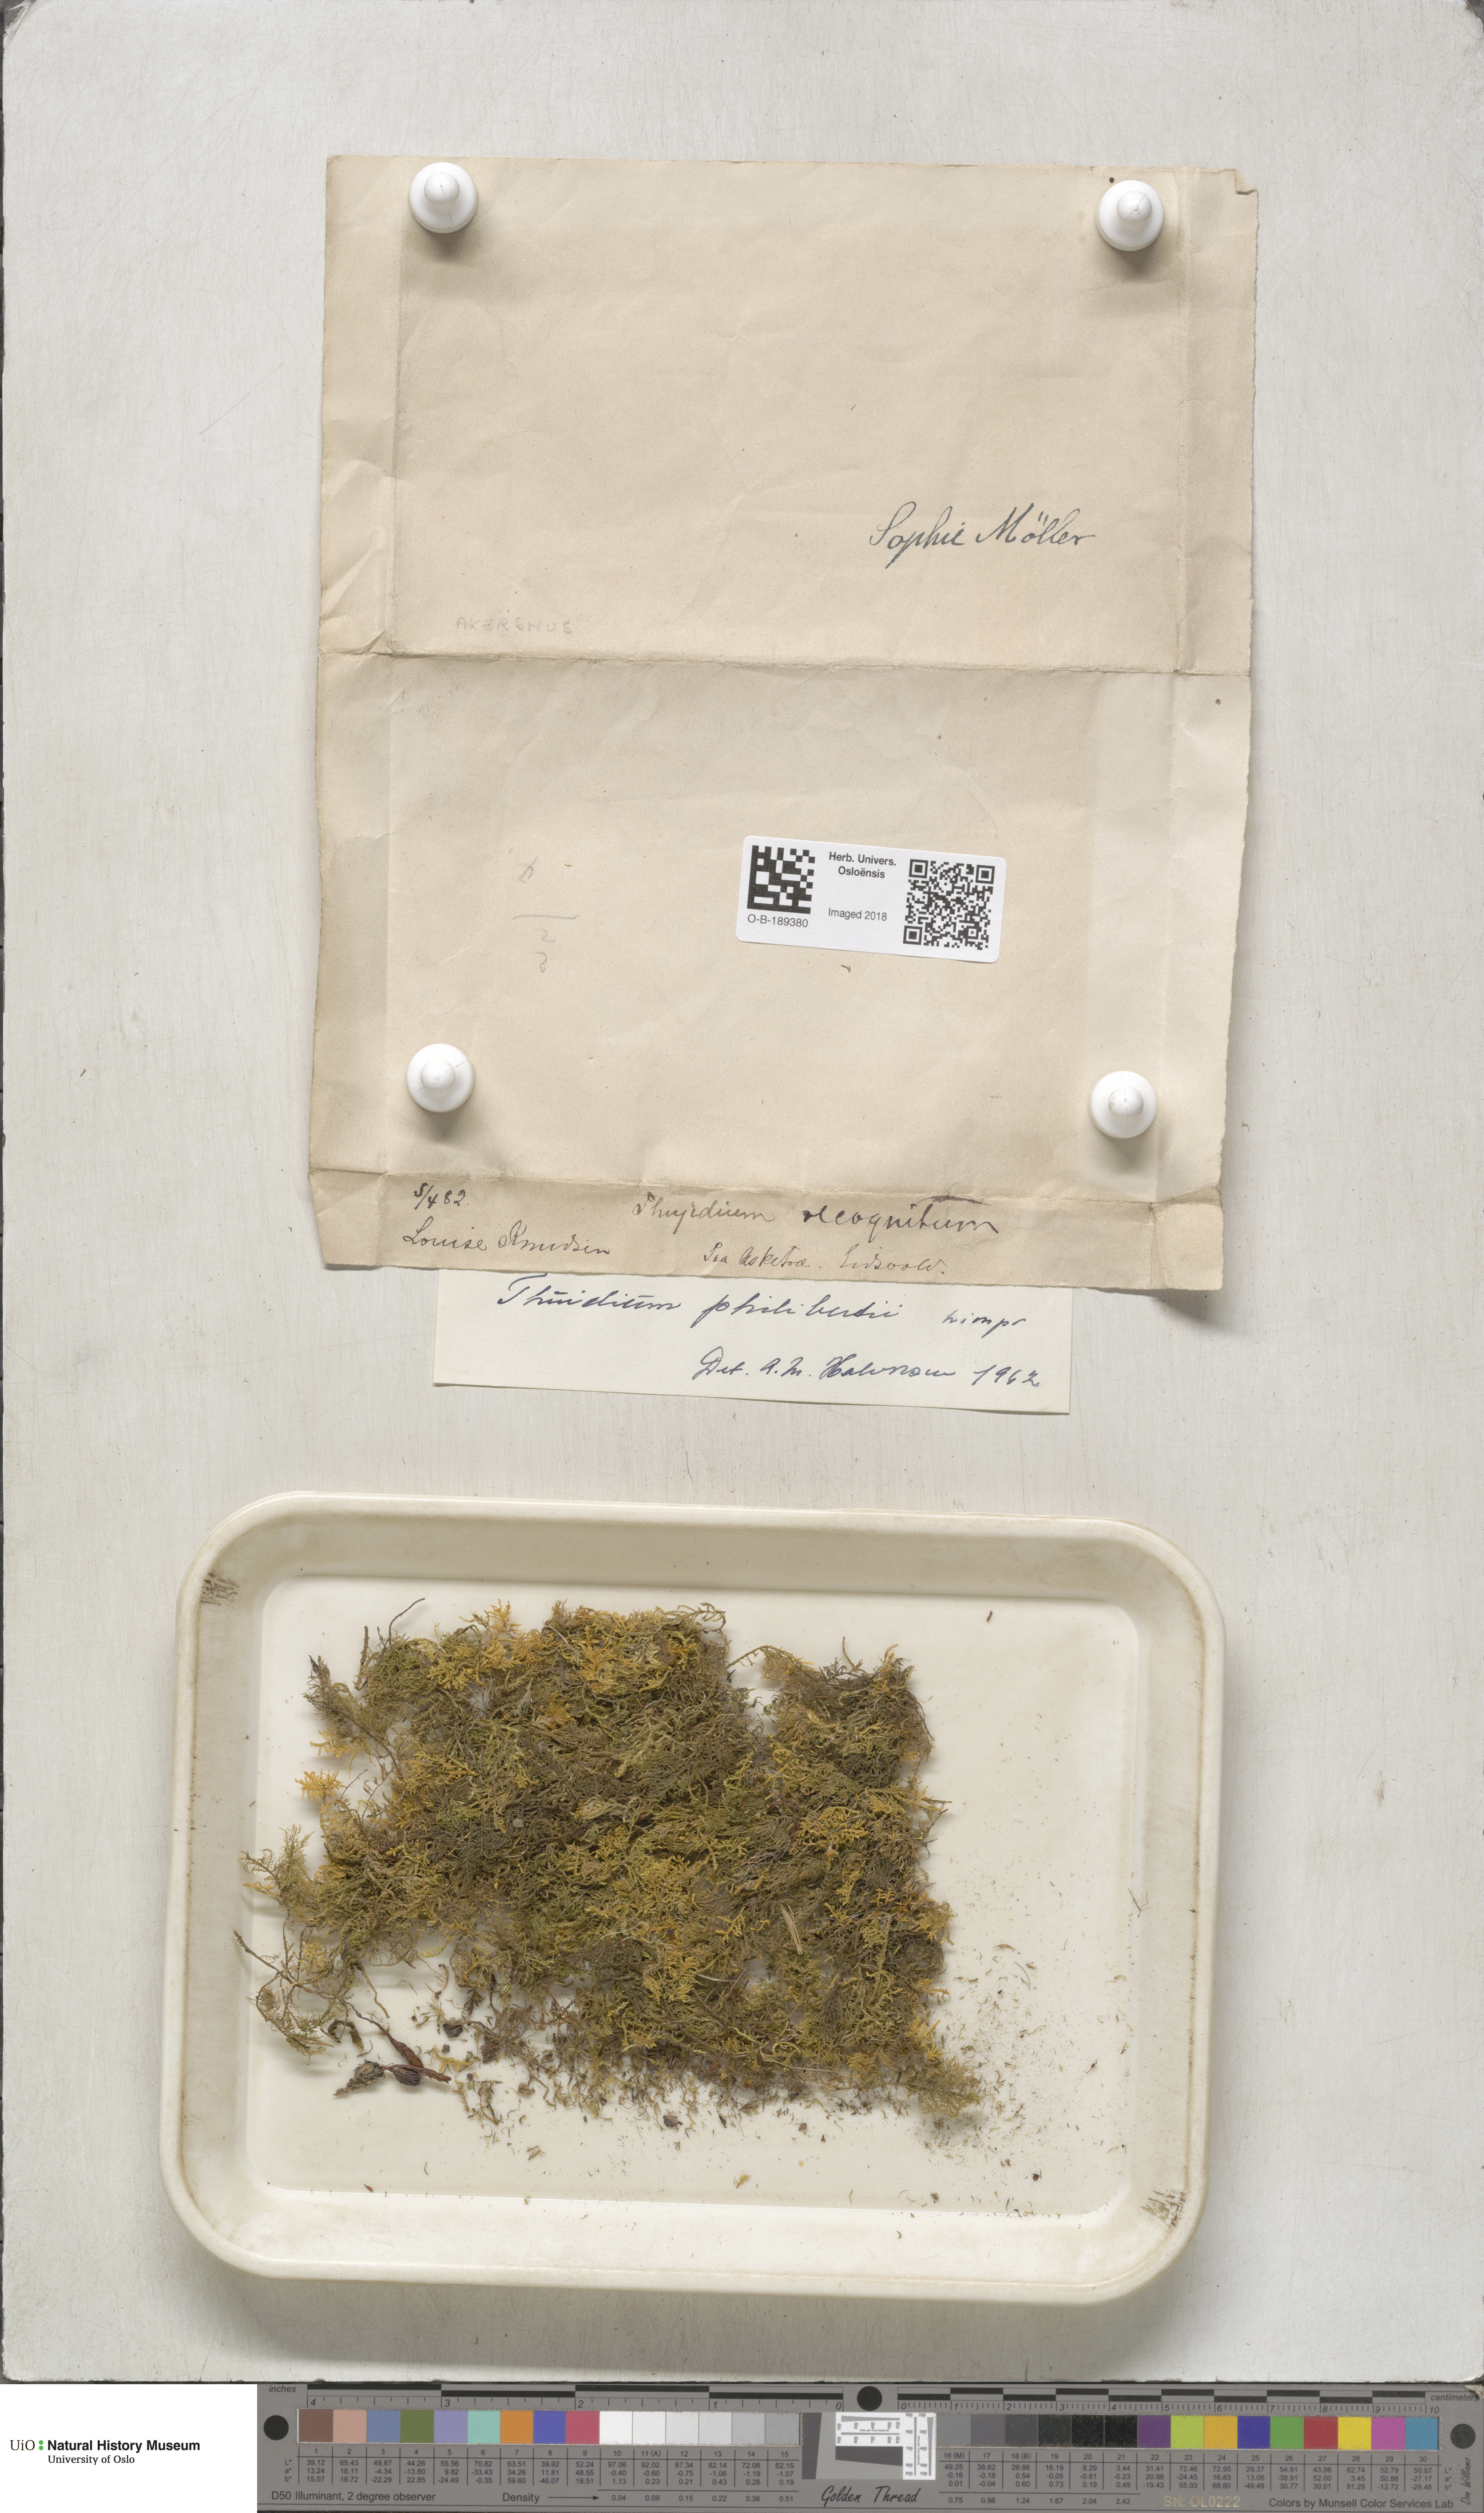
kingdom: Plantae
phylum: Bryophyta
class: Bryopsida
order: Hypnales
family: Thuidiaceae
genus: Thuidium
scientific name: Thuidium assimile
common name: Philibert's fern moss
